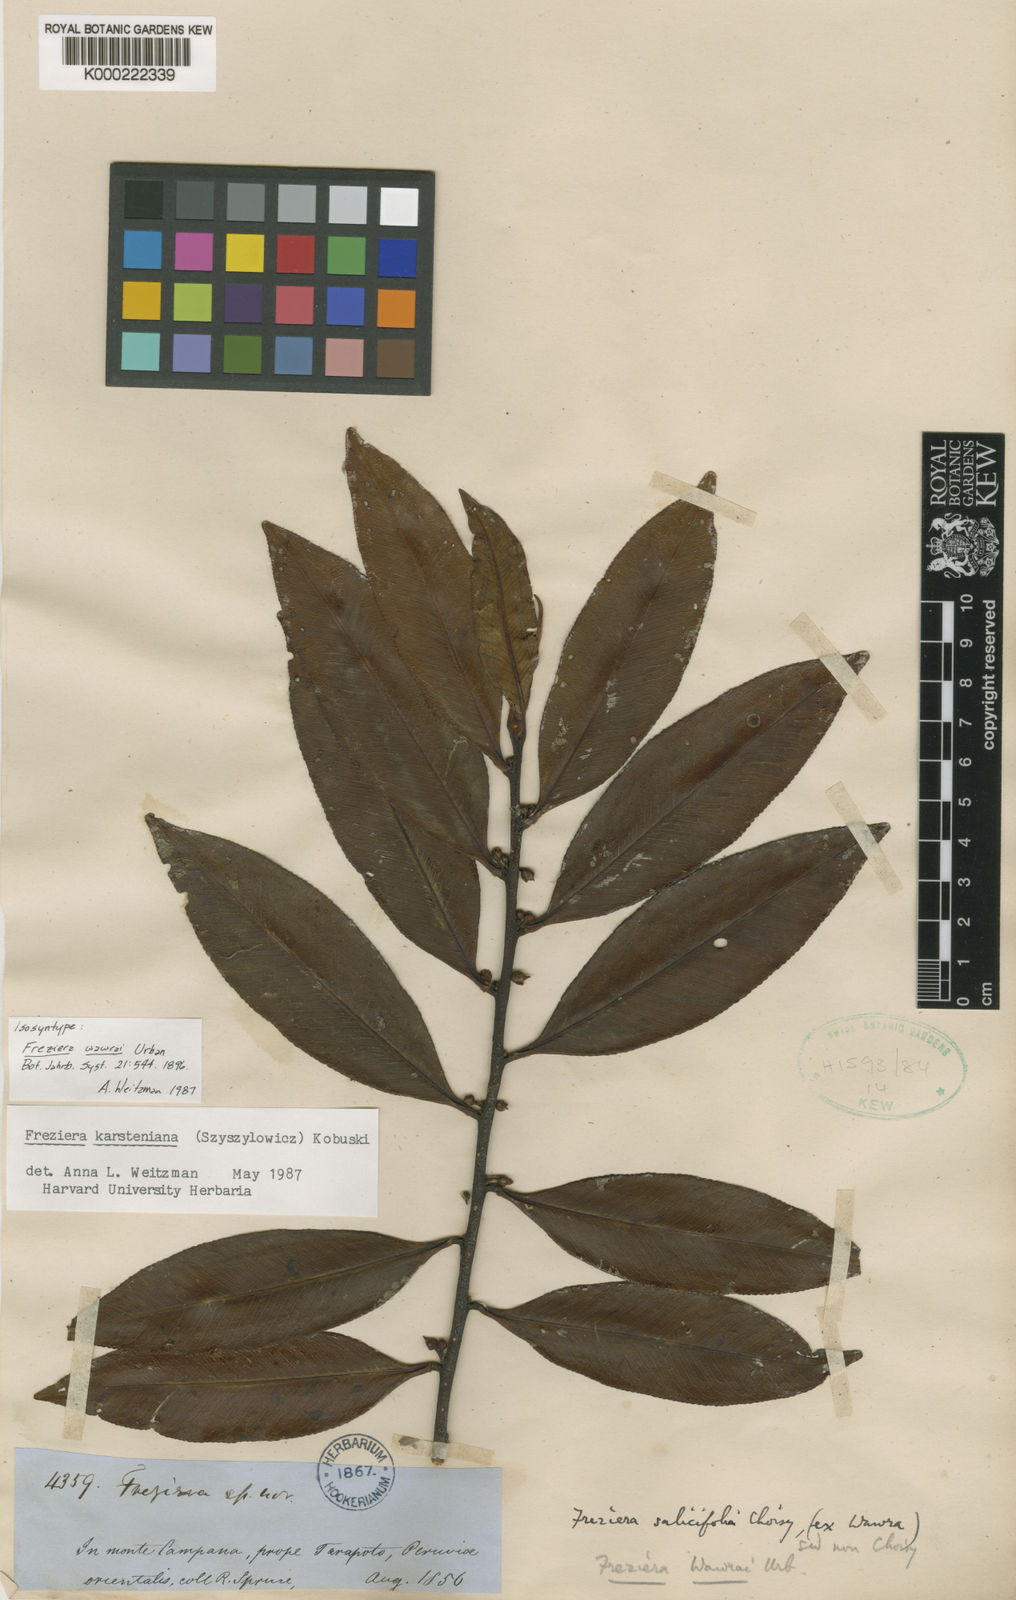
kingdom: Plantae
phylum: Tracheophyta
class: Magnoliopsida
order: Ericales
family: Pentaphylacaceae
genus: Freziera
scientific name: Freziera
